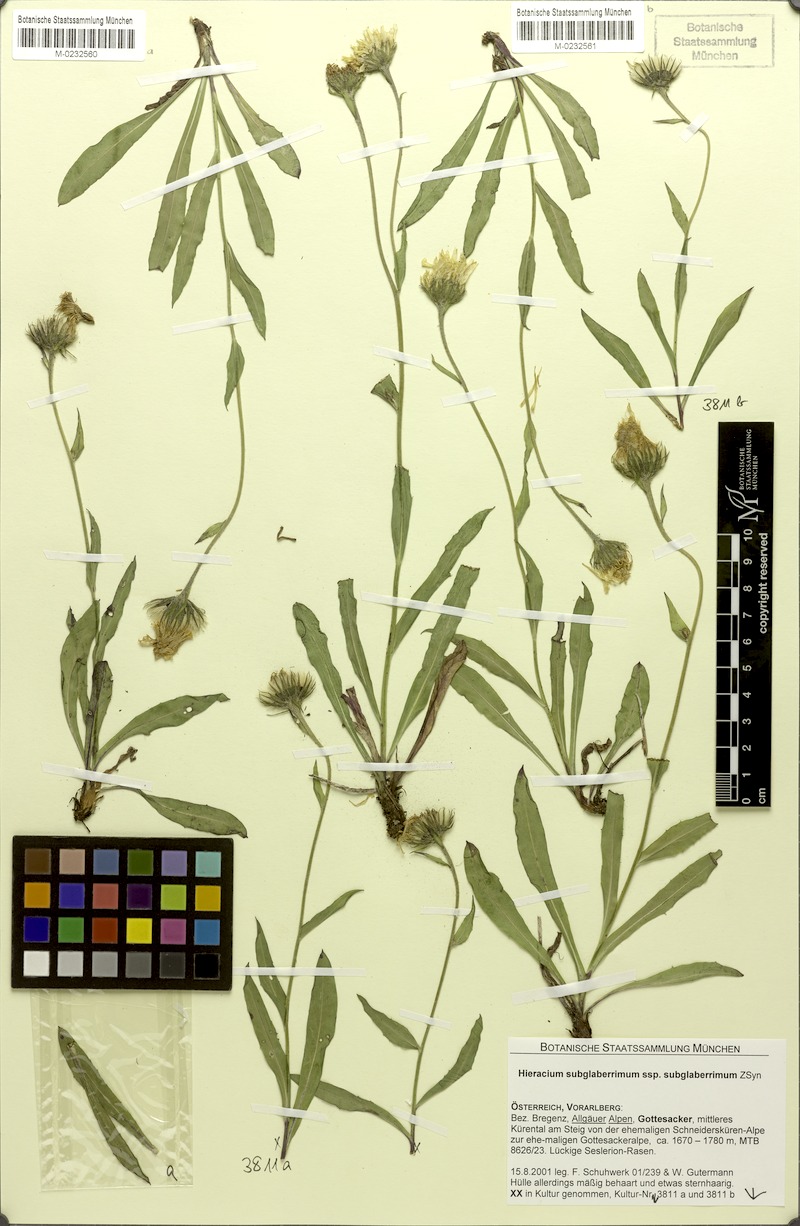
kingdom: Plantae
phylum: Tracheophyta
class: Magnoliopsida
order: Asterales
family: Asteraceae
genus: Hieracium
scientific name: Hieracium subglaberrimum
